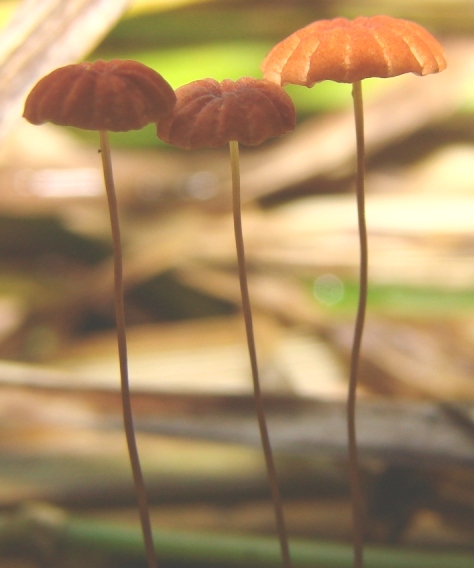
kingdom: Fungi
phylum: Basidiomycota
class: Agaricomycetes
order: Agaricales
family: Marasmiaceae
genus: Marasmius
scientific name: Marasmius curreyi
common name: teglrød bruskhat
